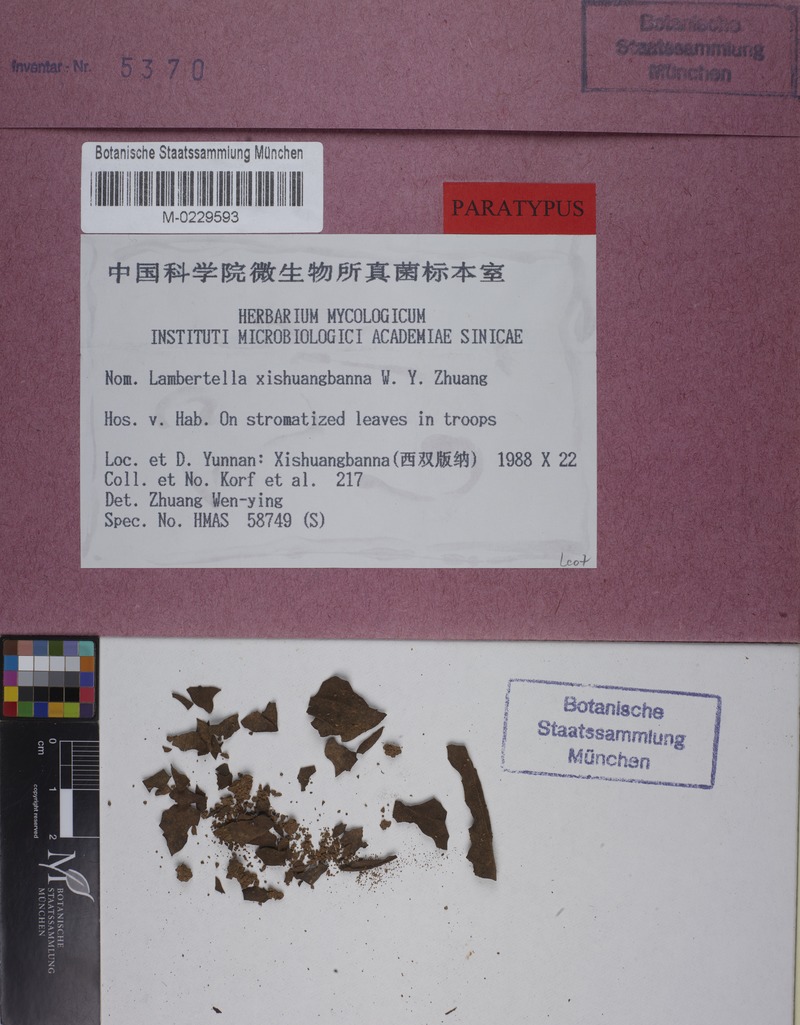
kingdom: Fungi
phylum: Ascomycota
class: Leotiomycetes
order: Helotiales
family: Rutstroemiaceae
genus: Lambertella
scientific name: Lambertella xishuangbanna
